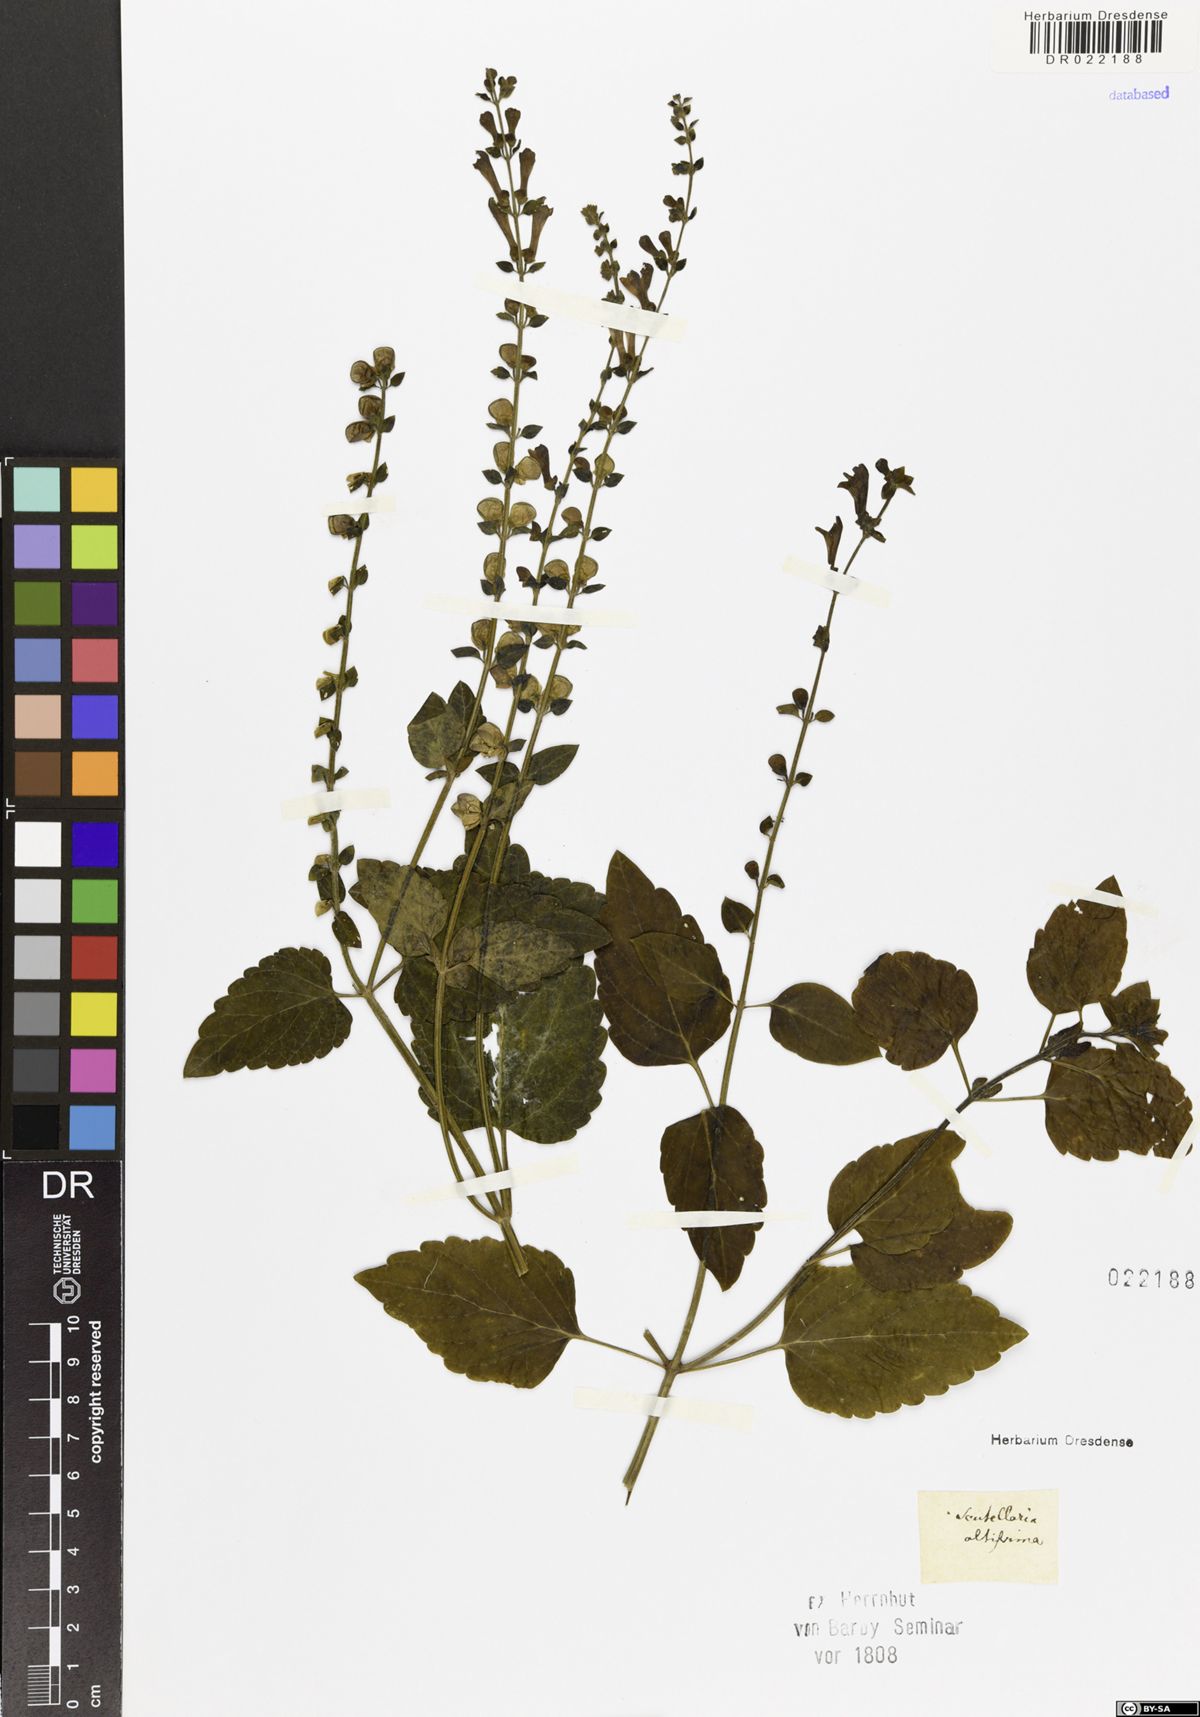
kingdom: Plantae
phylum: Tracheophyta
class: Magnoliopsida
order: Lamiales
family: Lamiaceae
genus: Scutellaria
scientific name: Scutellaria altissima
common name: Somerset skullcap
